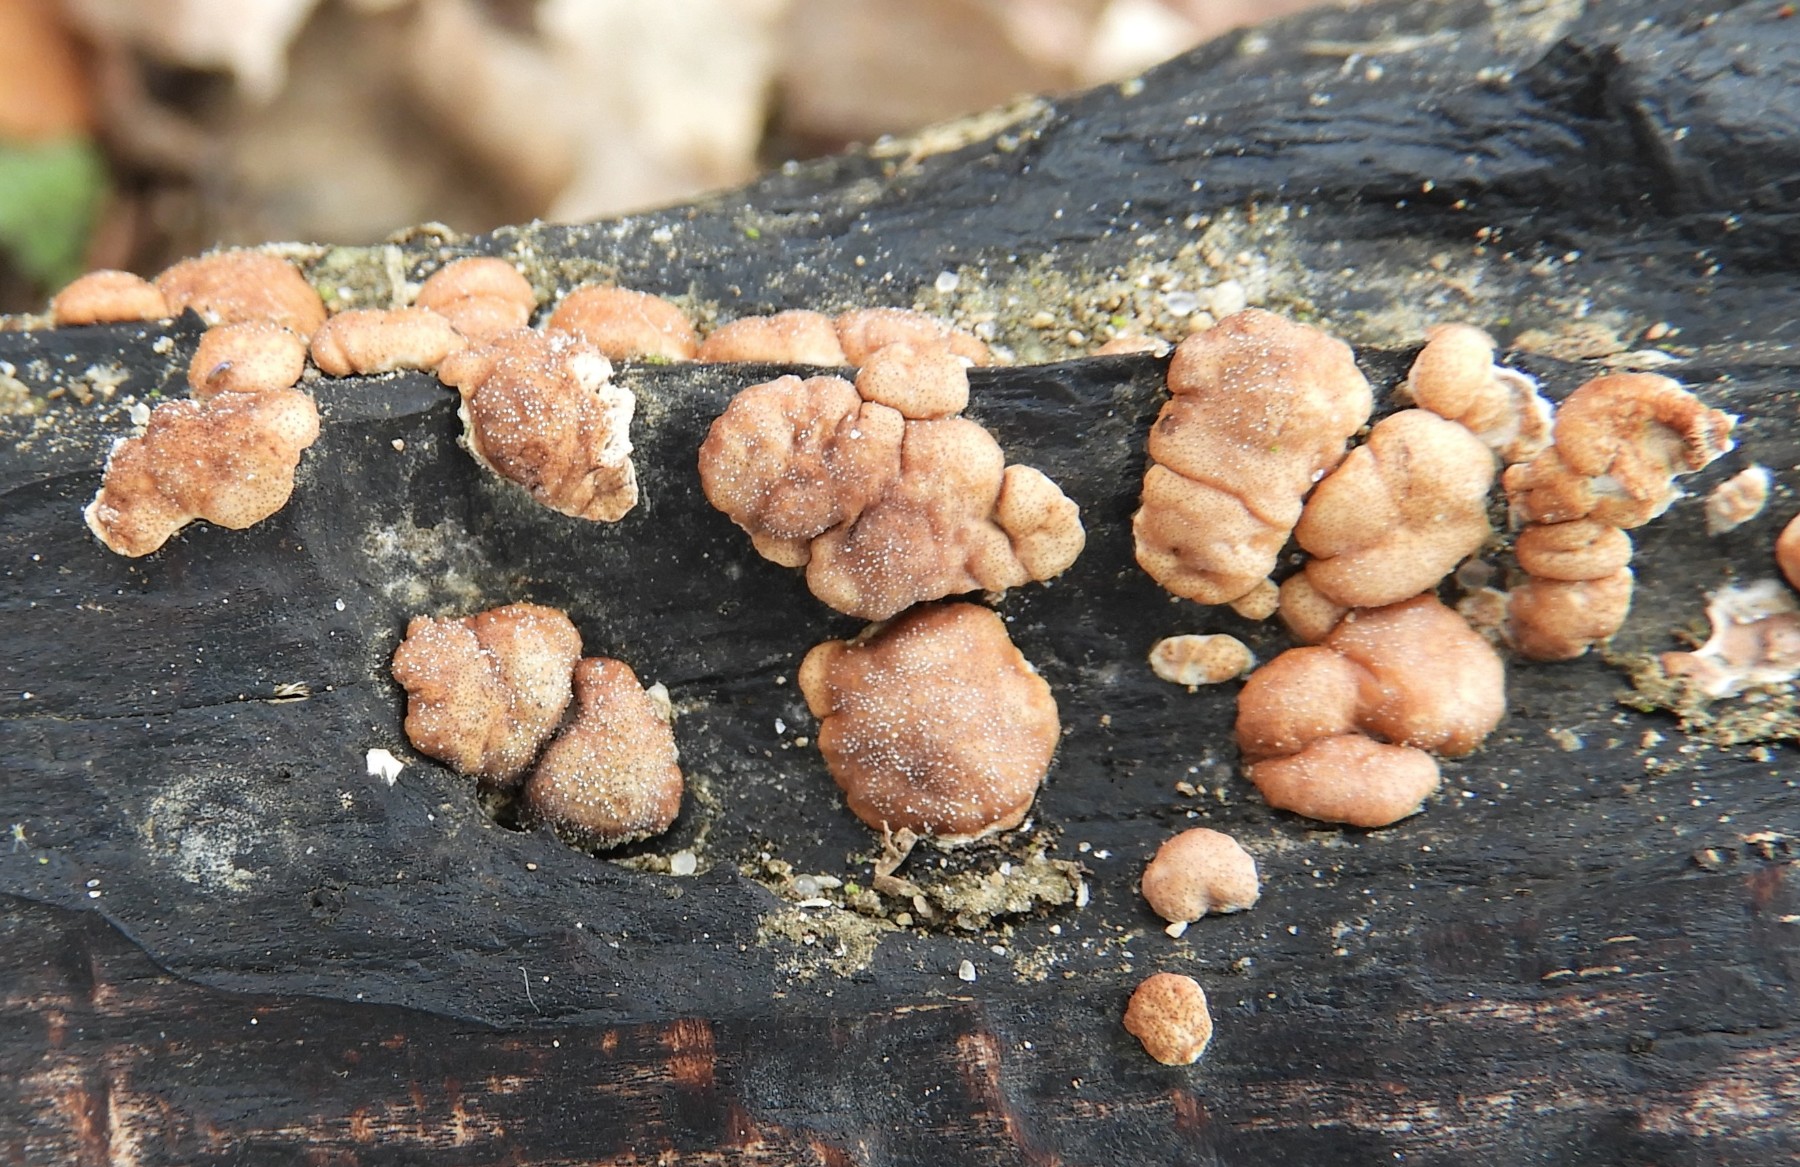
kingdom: Fungi
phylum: Ascomycota
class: Sordariomycetes
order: Hypocreales
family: Hypocreaceae
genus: Trichoderma
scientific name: Trichoderma europaeum
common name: rosabrun kødkerne
